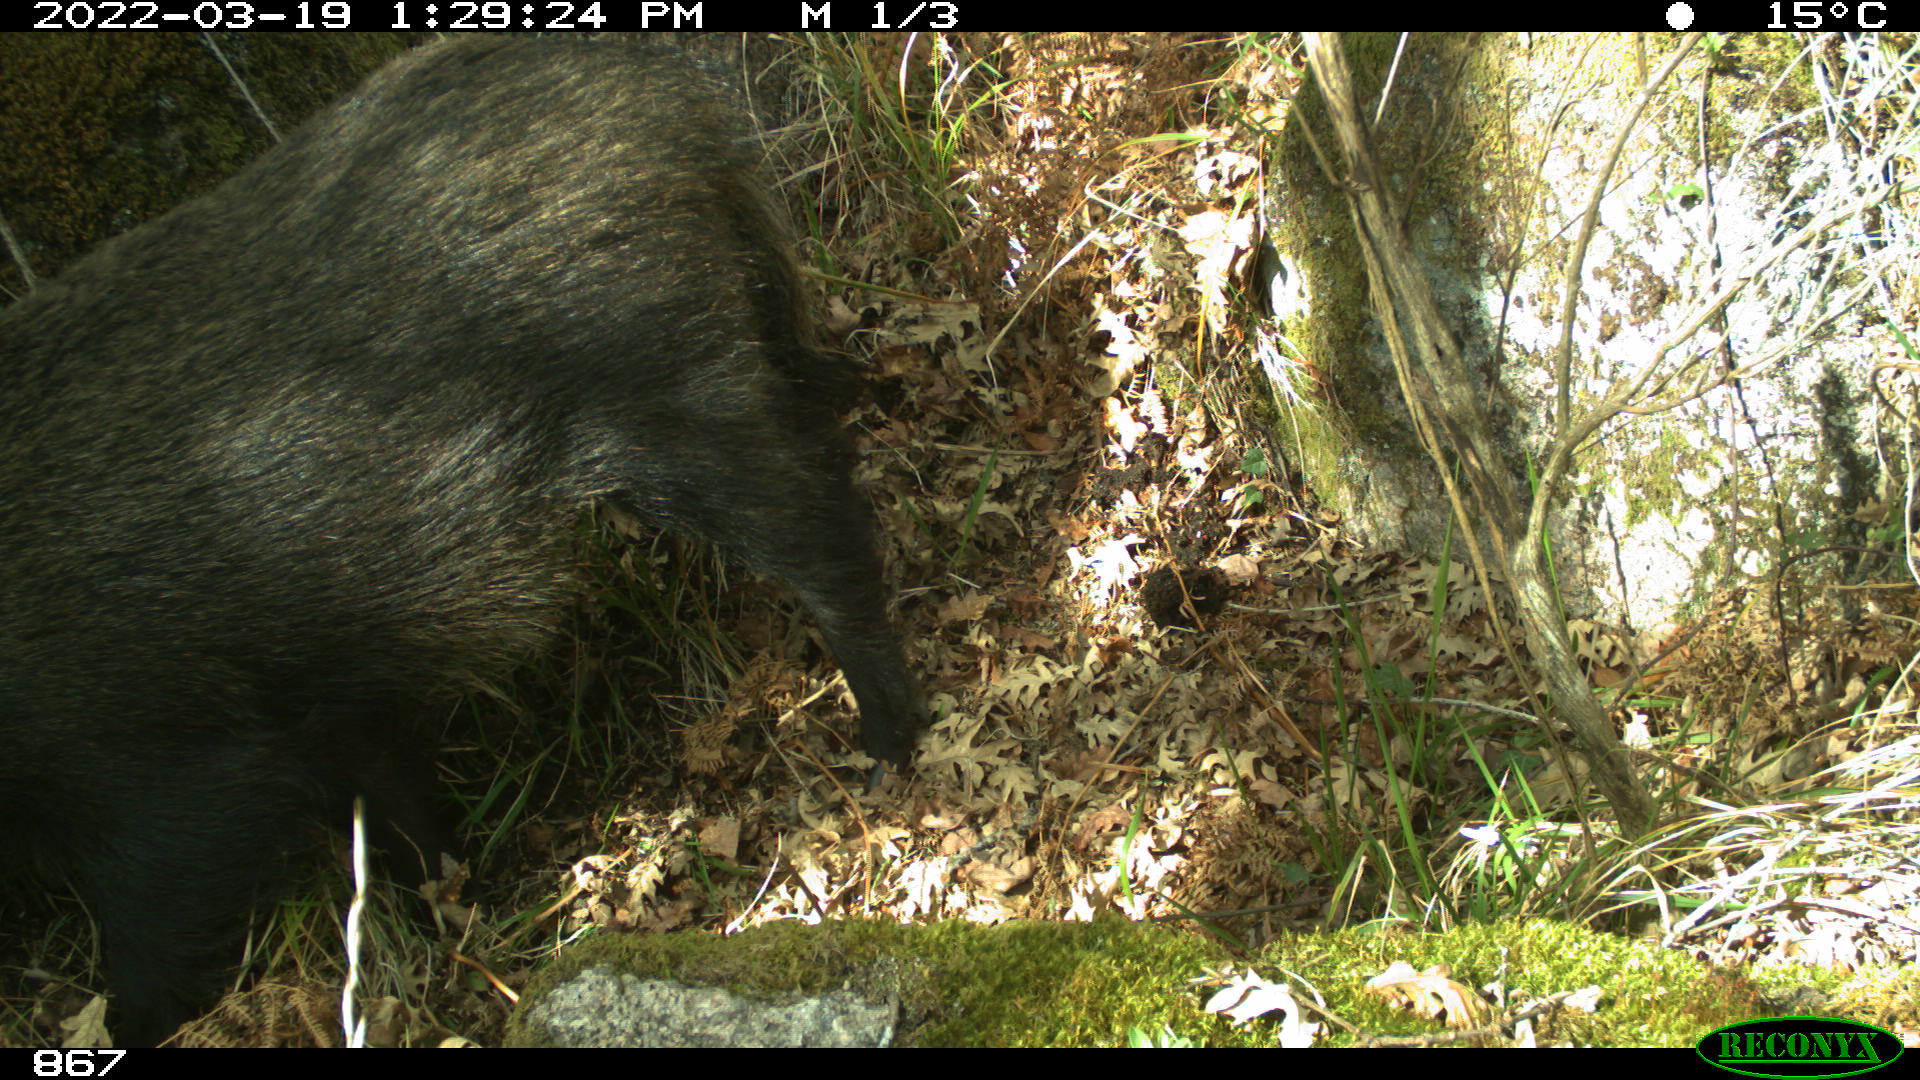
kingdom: Animalia
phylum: Chordata
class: Mammalia
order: Artiodactyla
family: Suidae
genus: Sus
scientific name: Sus scrofa
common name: Wild boar
